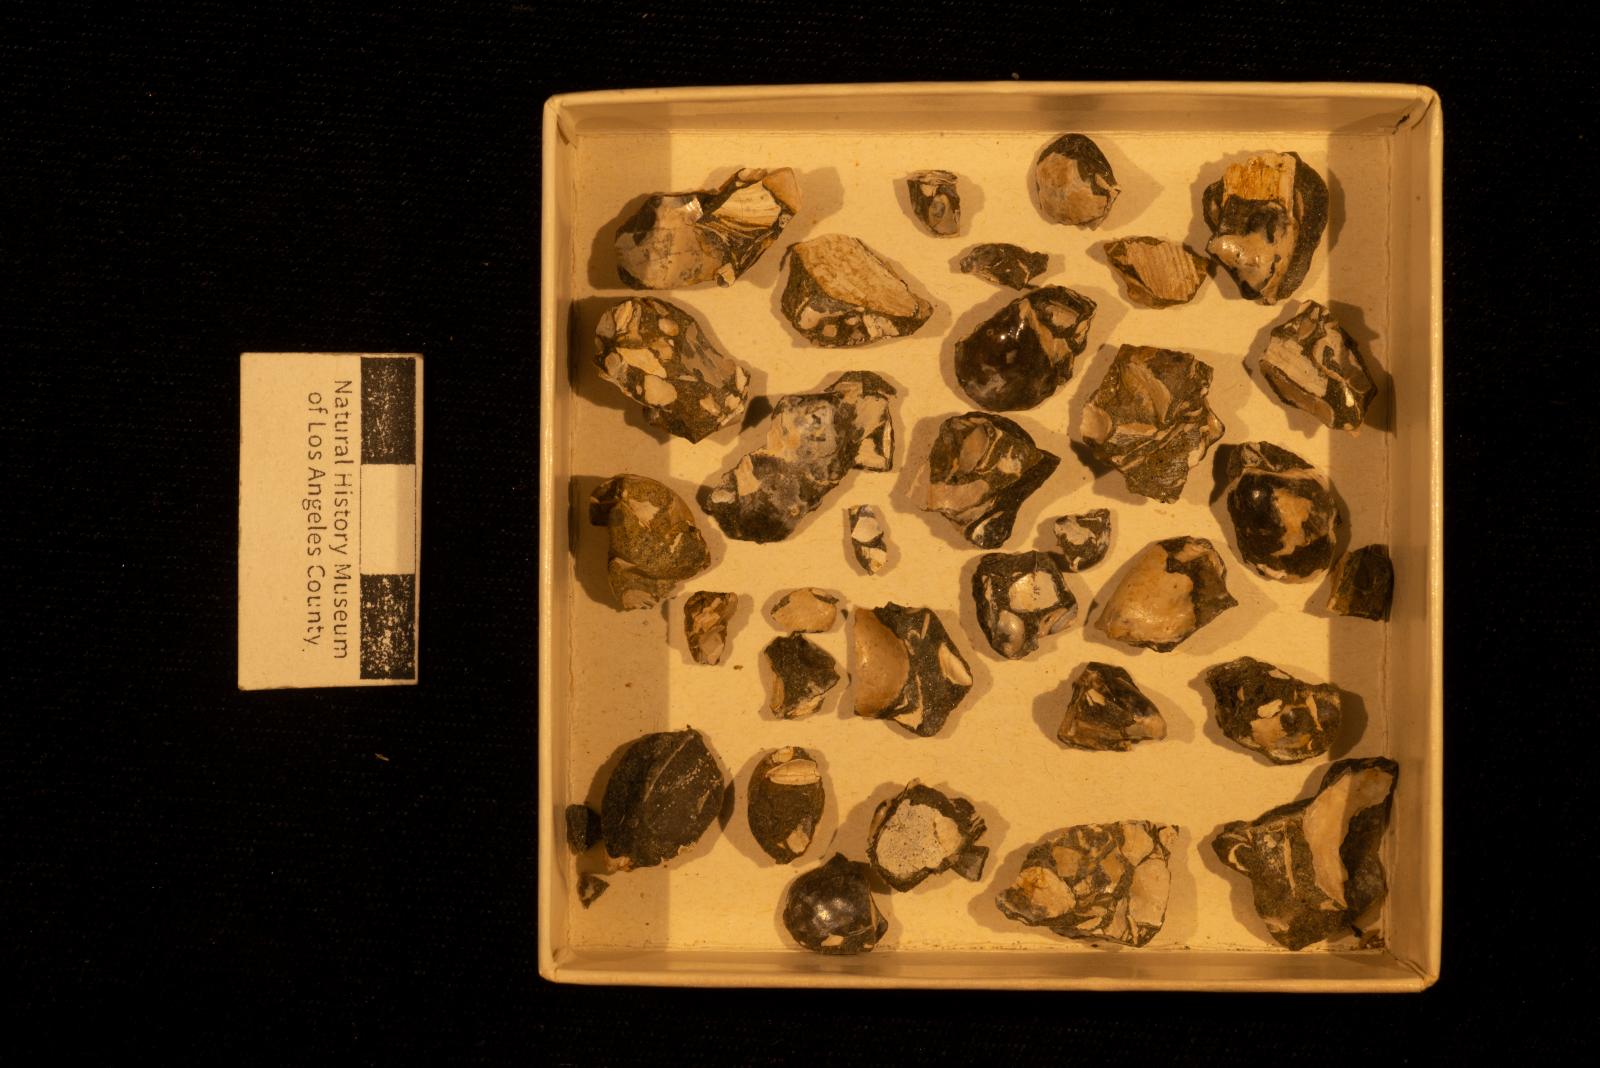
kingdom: Animalia
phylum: Mollusca
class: Bivalvia
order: Ostreida
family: Pteriidae
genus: Pteria
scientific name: Pteria pellucida
